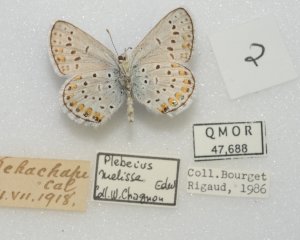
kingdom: Animalia
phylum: Arthropoda
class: Insecta
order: Lepidoptera
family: Lycaenidae
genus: Lycaeides
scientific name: Lycaeides melissa
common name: Melissa Blue
